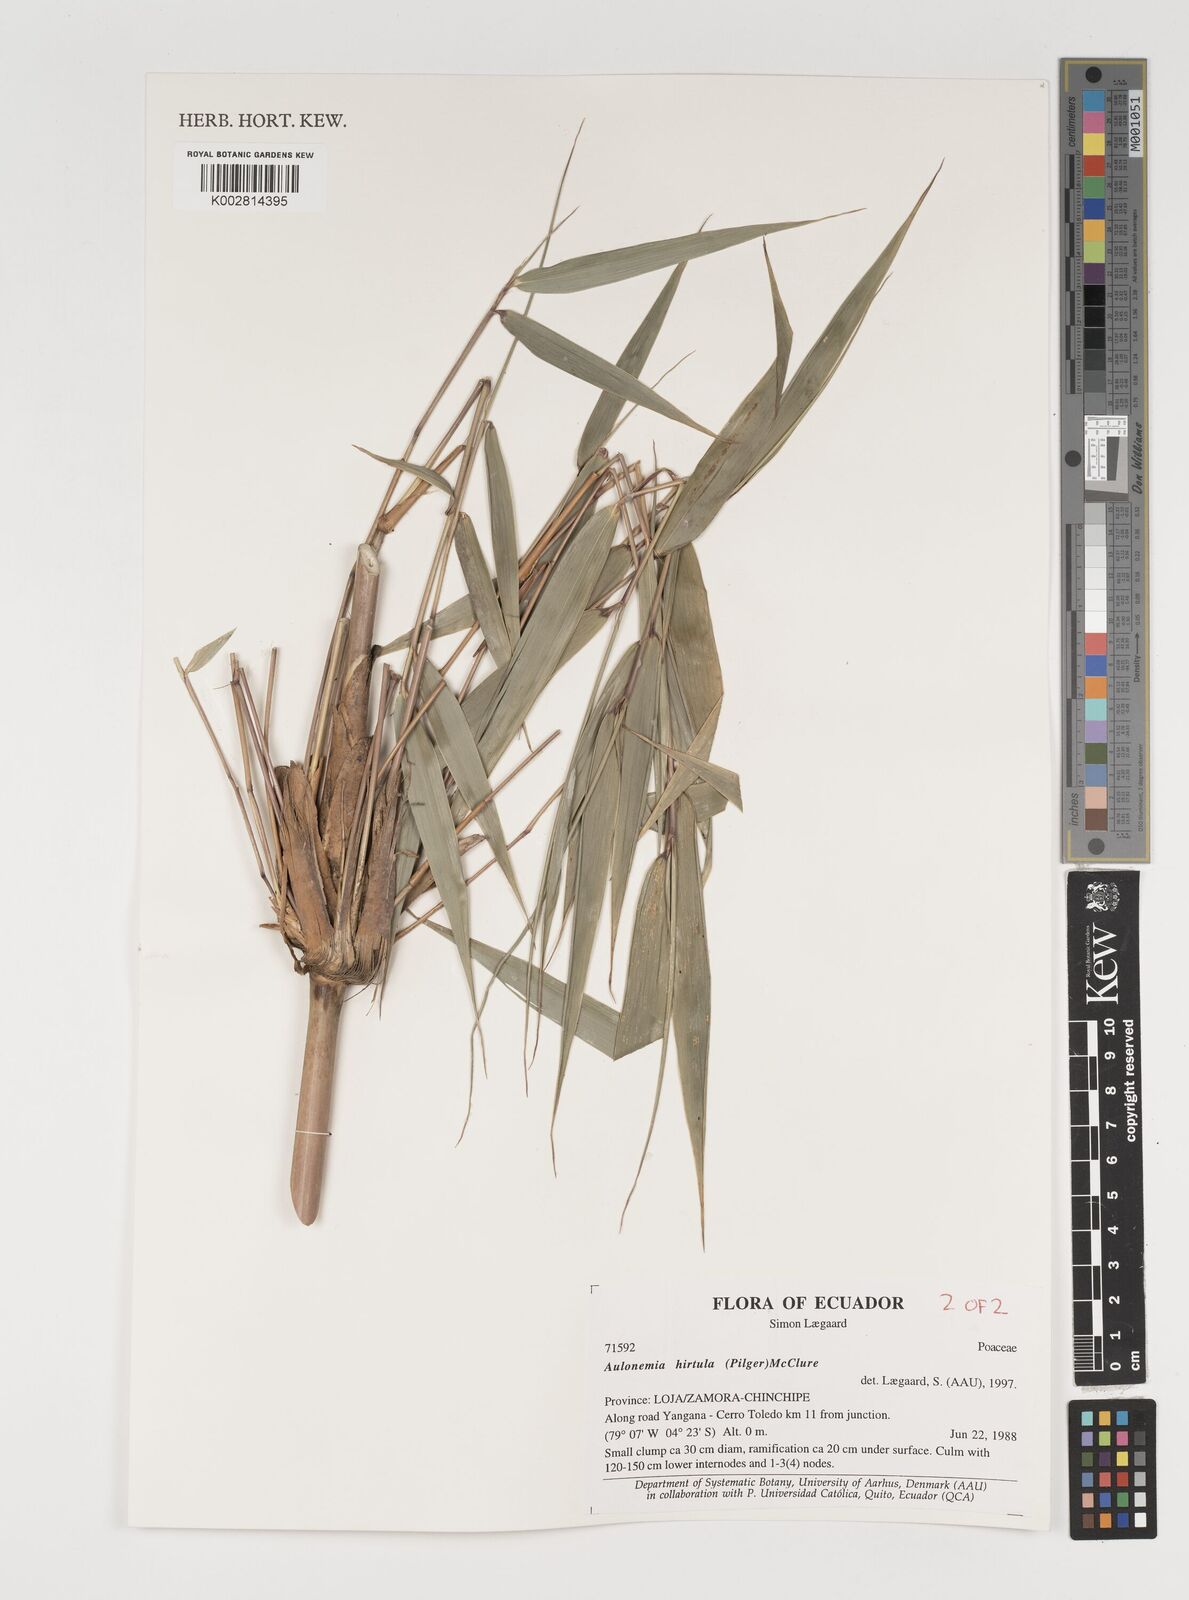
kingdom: Plantae
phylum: Tracheophyta
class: Liliopsida
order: Poales
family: Poaceae
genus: Aulonemia
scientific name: Aulonemia hirtula
